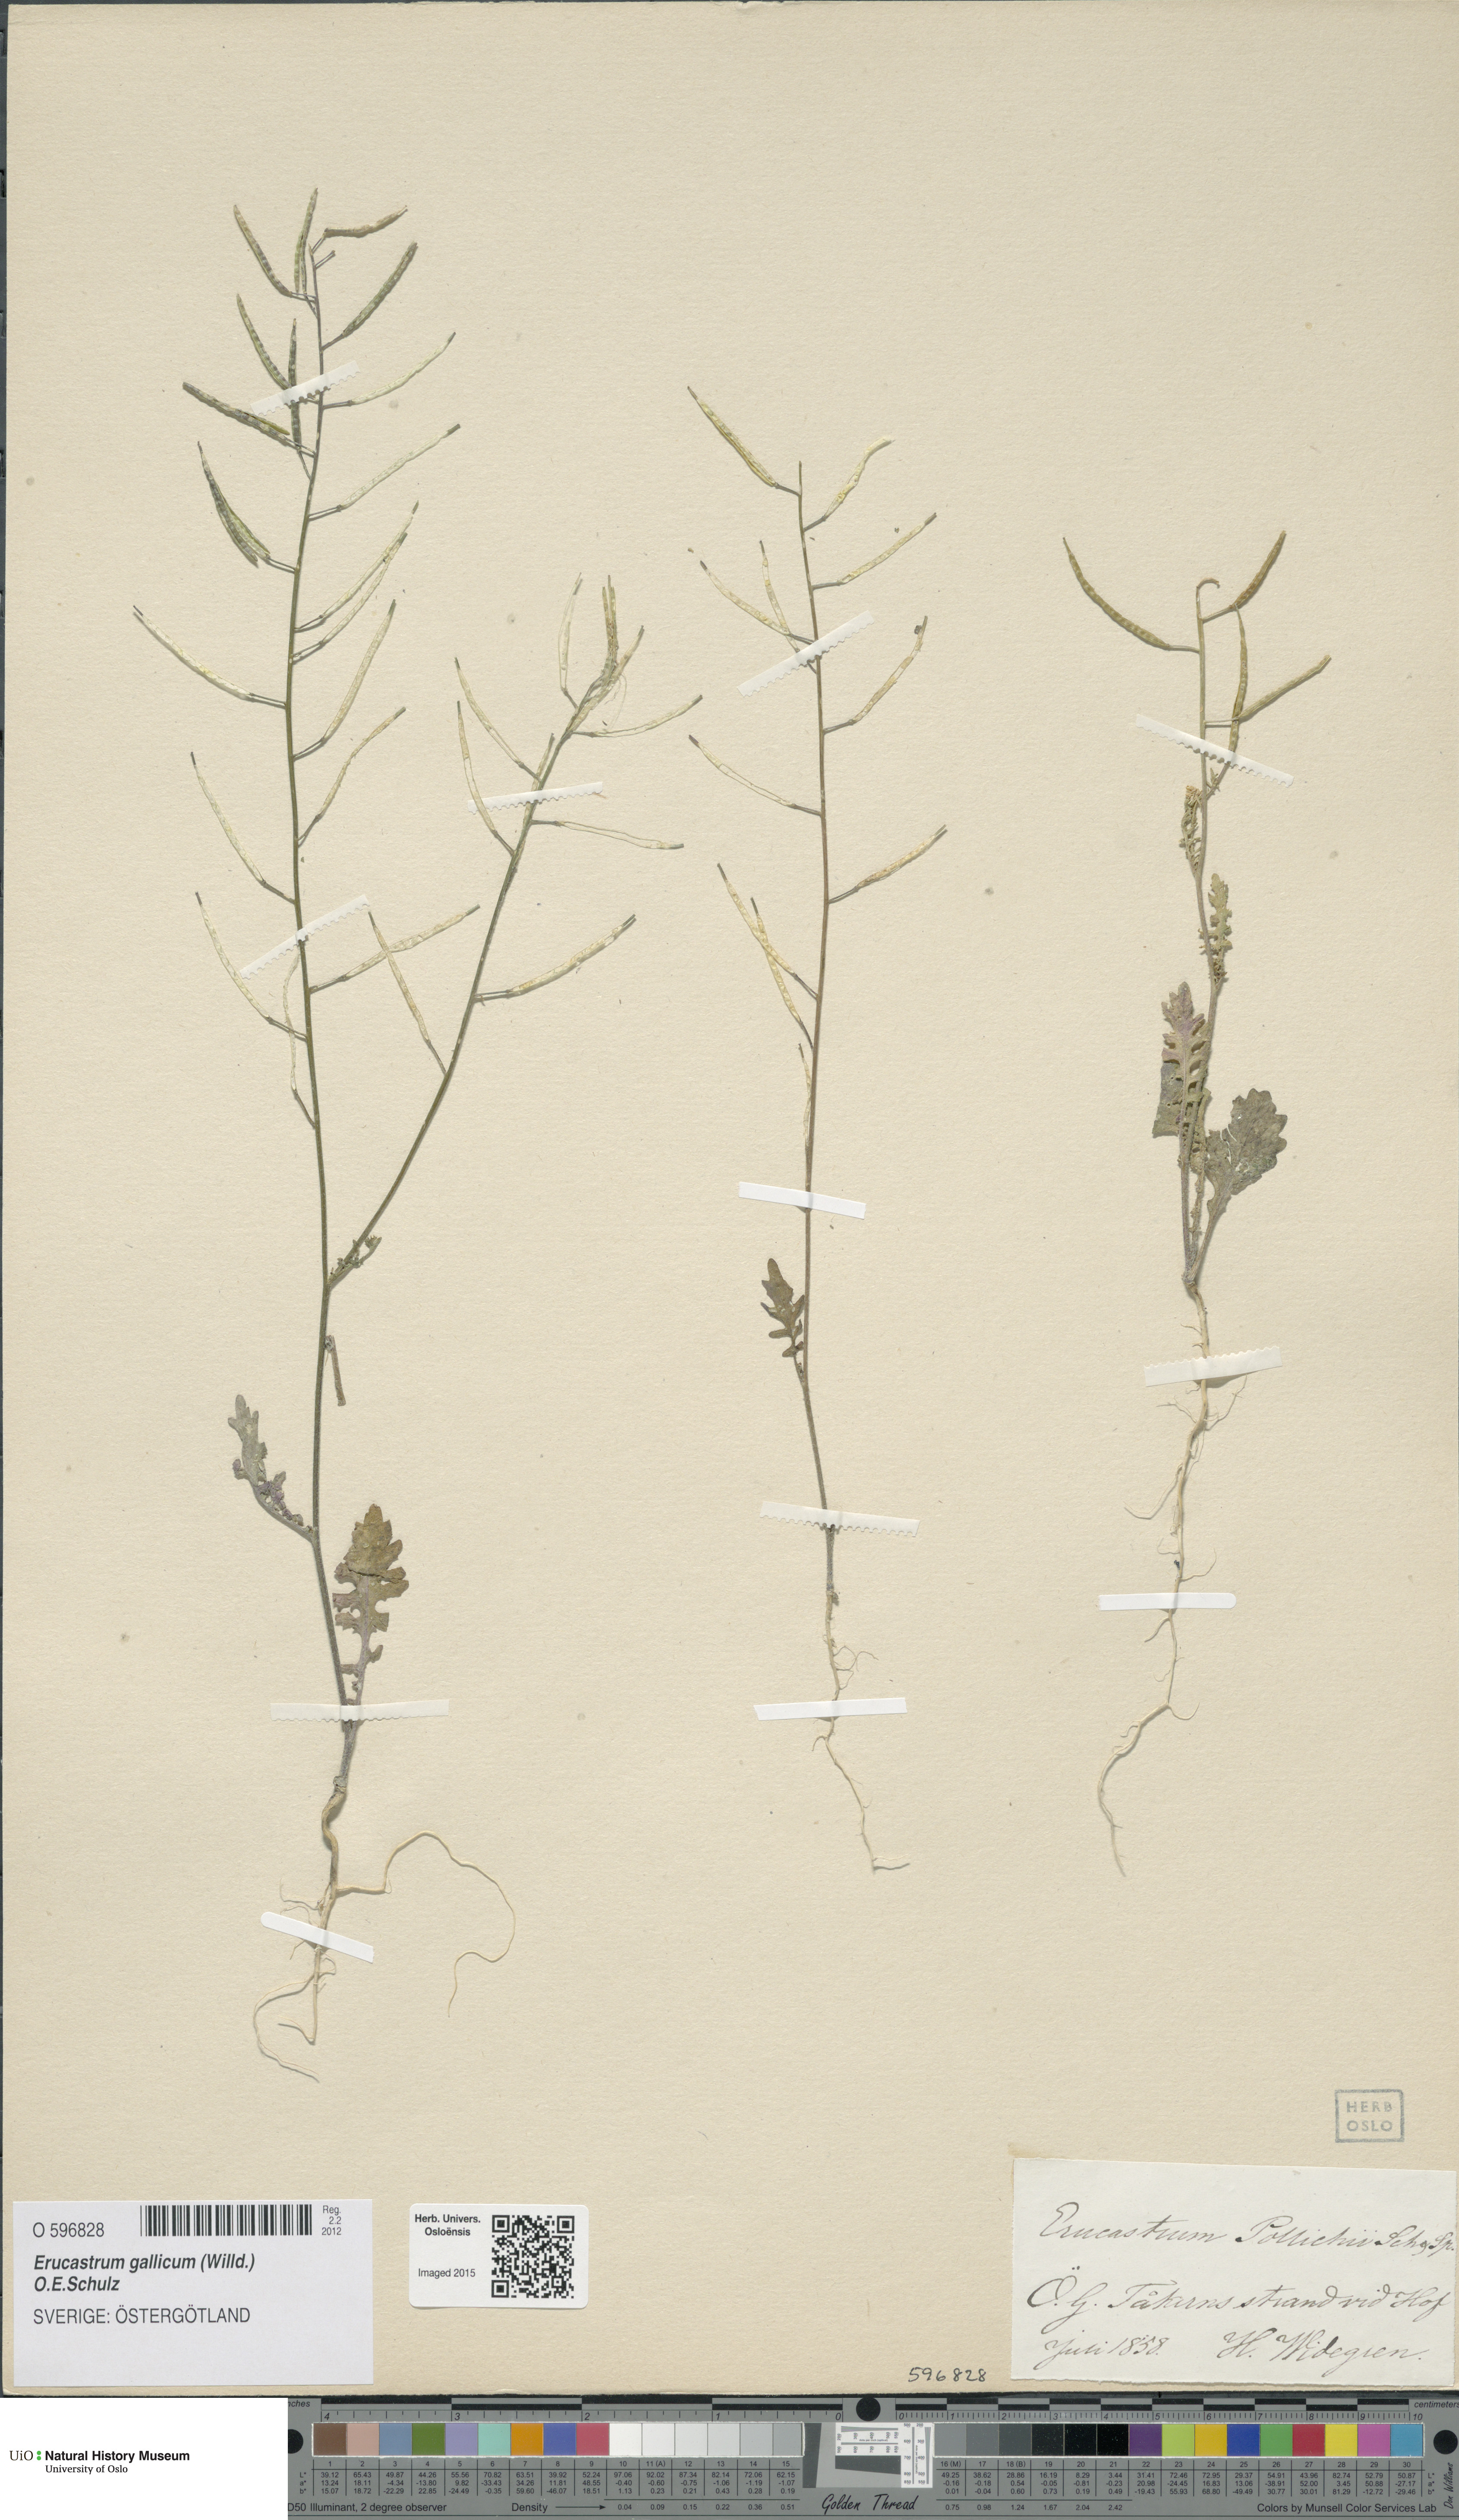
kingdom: Plantae
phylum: Tracheophyta
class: Magnoliopsida
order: Brassicales
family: Brassicaceae
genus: Erucastrum
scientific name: Erucastrum gallicum
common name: Hairy rocket
